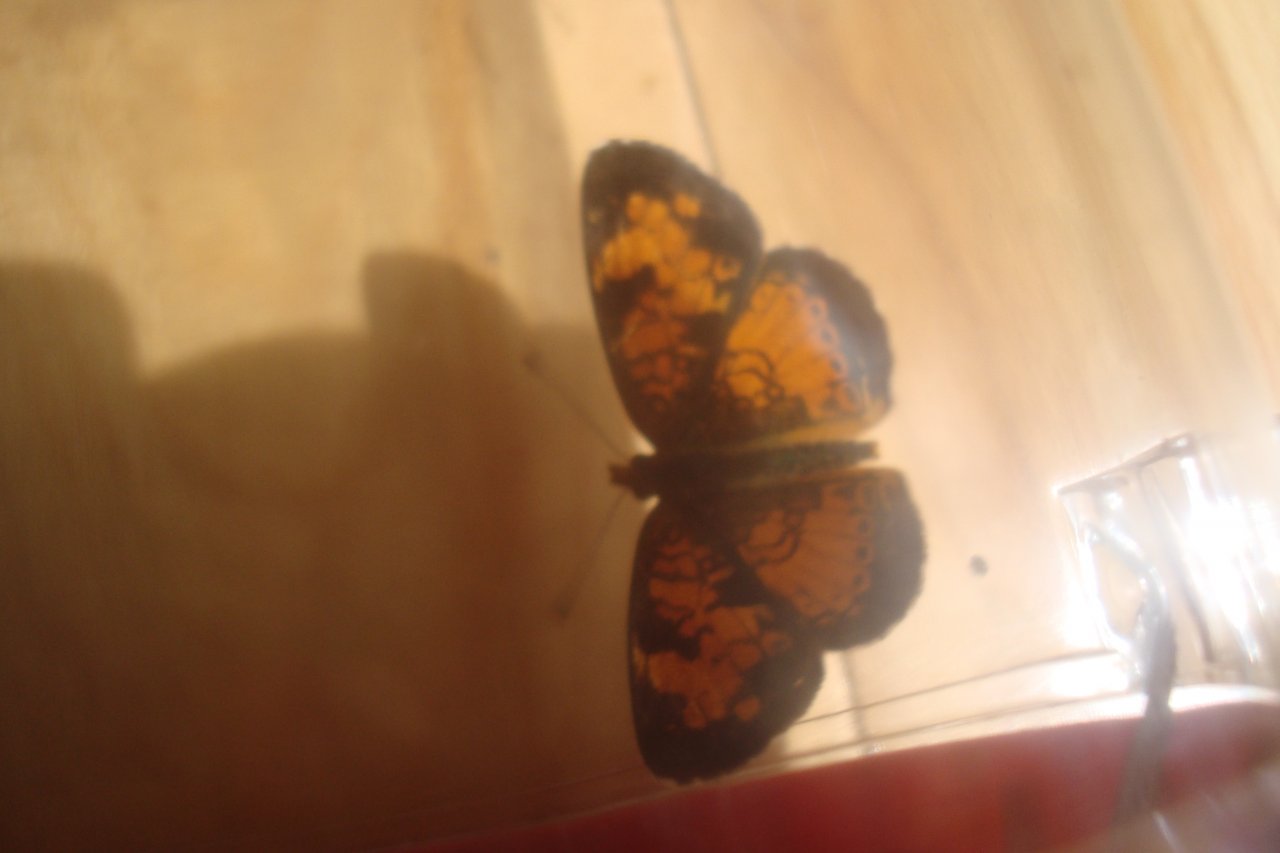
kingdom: Animalia
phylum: Arthropoda
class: Insecta
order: Lepidoptera
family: Nymphalidae
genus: Phyciodes
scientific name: Phyciodes tharos
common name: Northern Crescent
